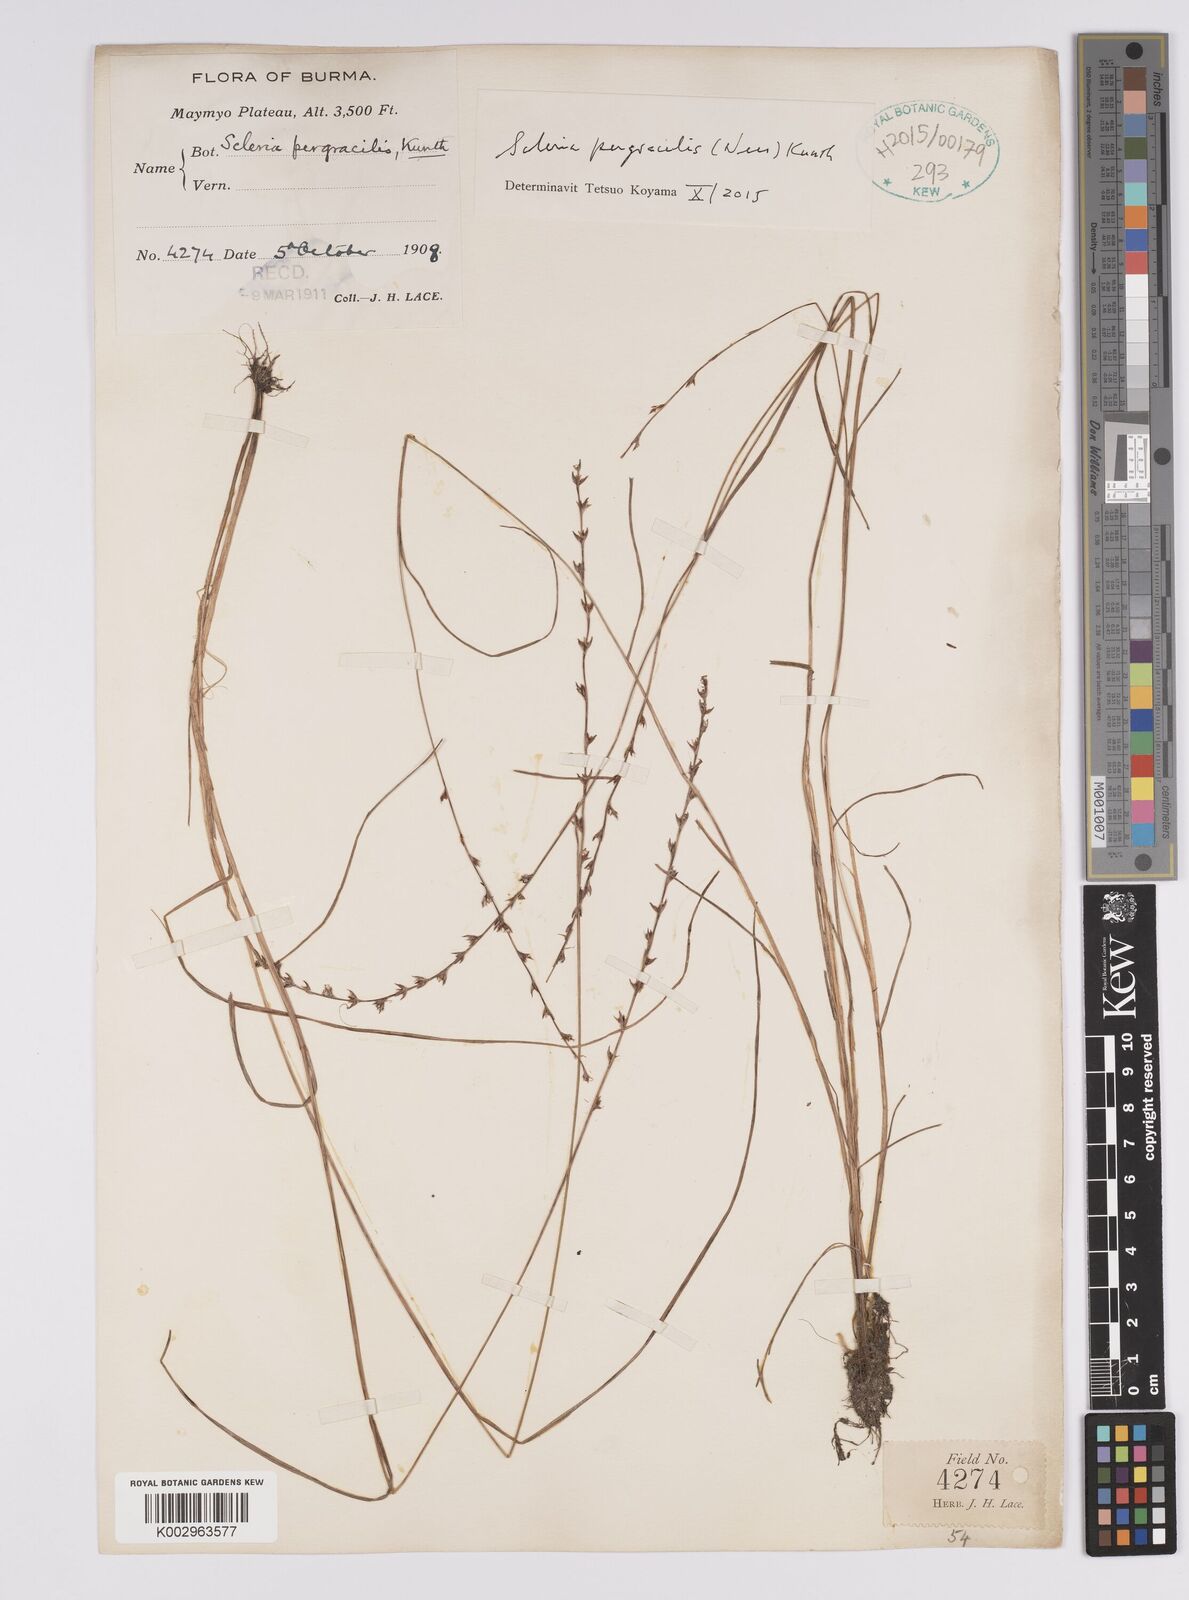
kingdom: Plantae
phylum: Tracheophyta
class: Liliopsida
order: Poales
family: Cyperaceae
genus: Scleria
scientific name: Scleria pergracilis
